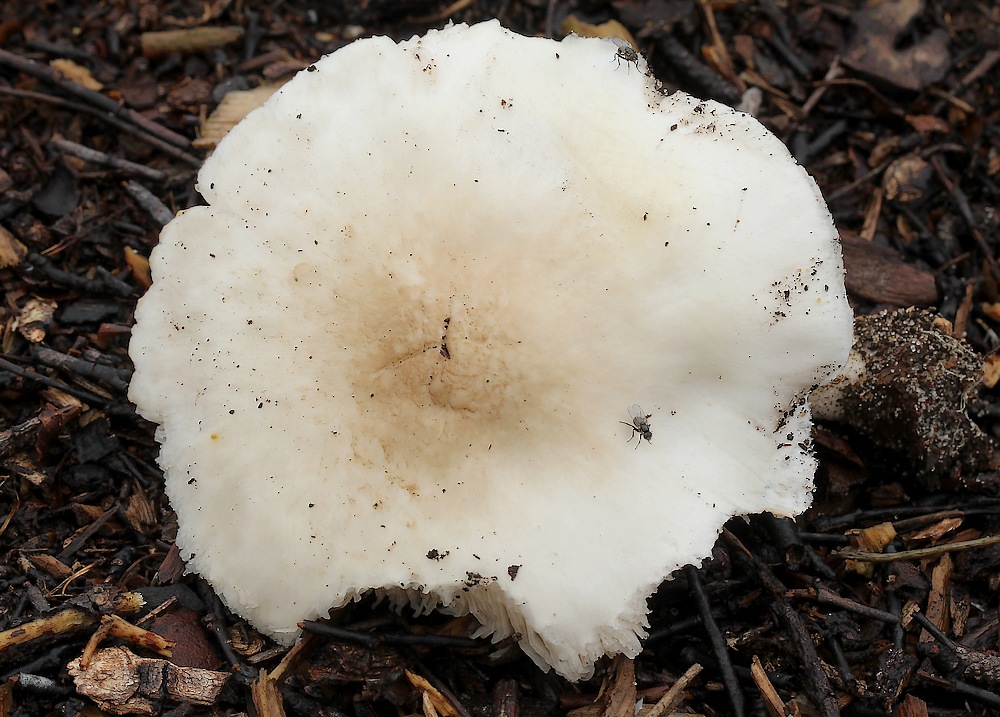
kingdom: Fungi
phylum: Basidiomycota
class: Agaricomycetes
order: Agaricales
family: Pluteaceae
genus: Pluteus
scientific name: Pluteus
